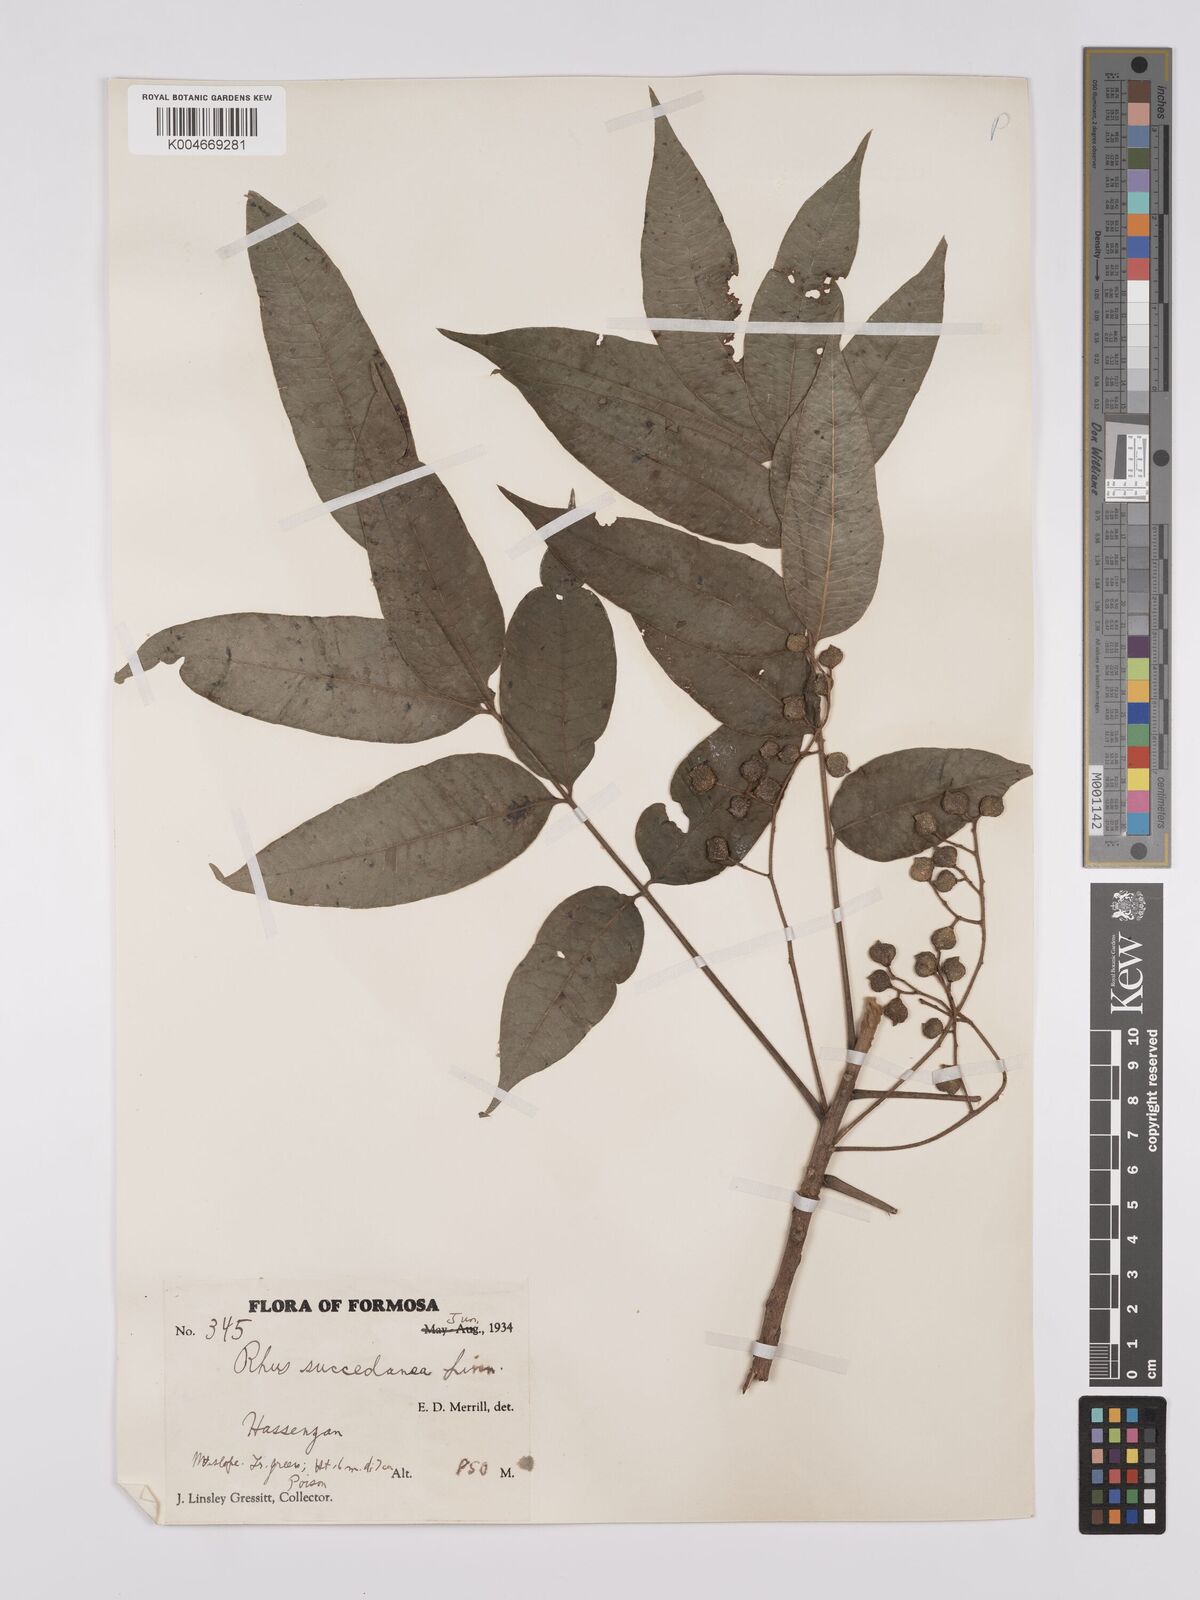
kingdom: Plantae
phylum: Tracheophyta
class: Magnoliopsida
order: Sapindales
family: Anacardiaceae
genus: Toxicodendron
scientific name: Toxicodendron succedaneum
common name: Wax tree
